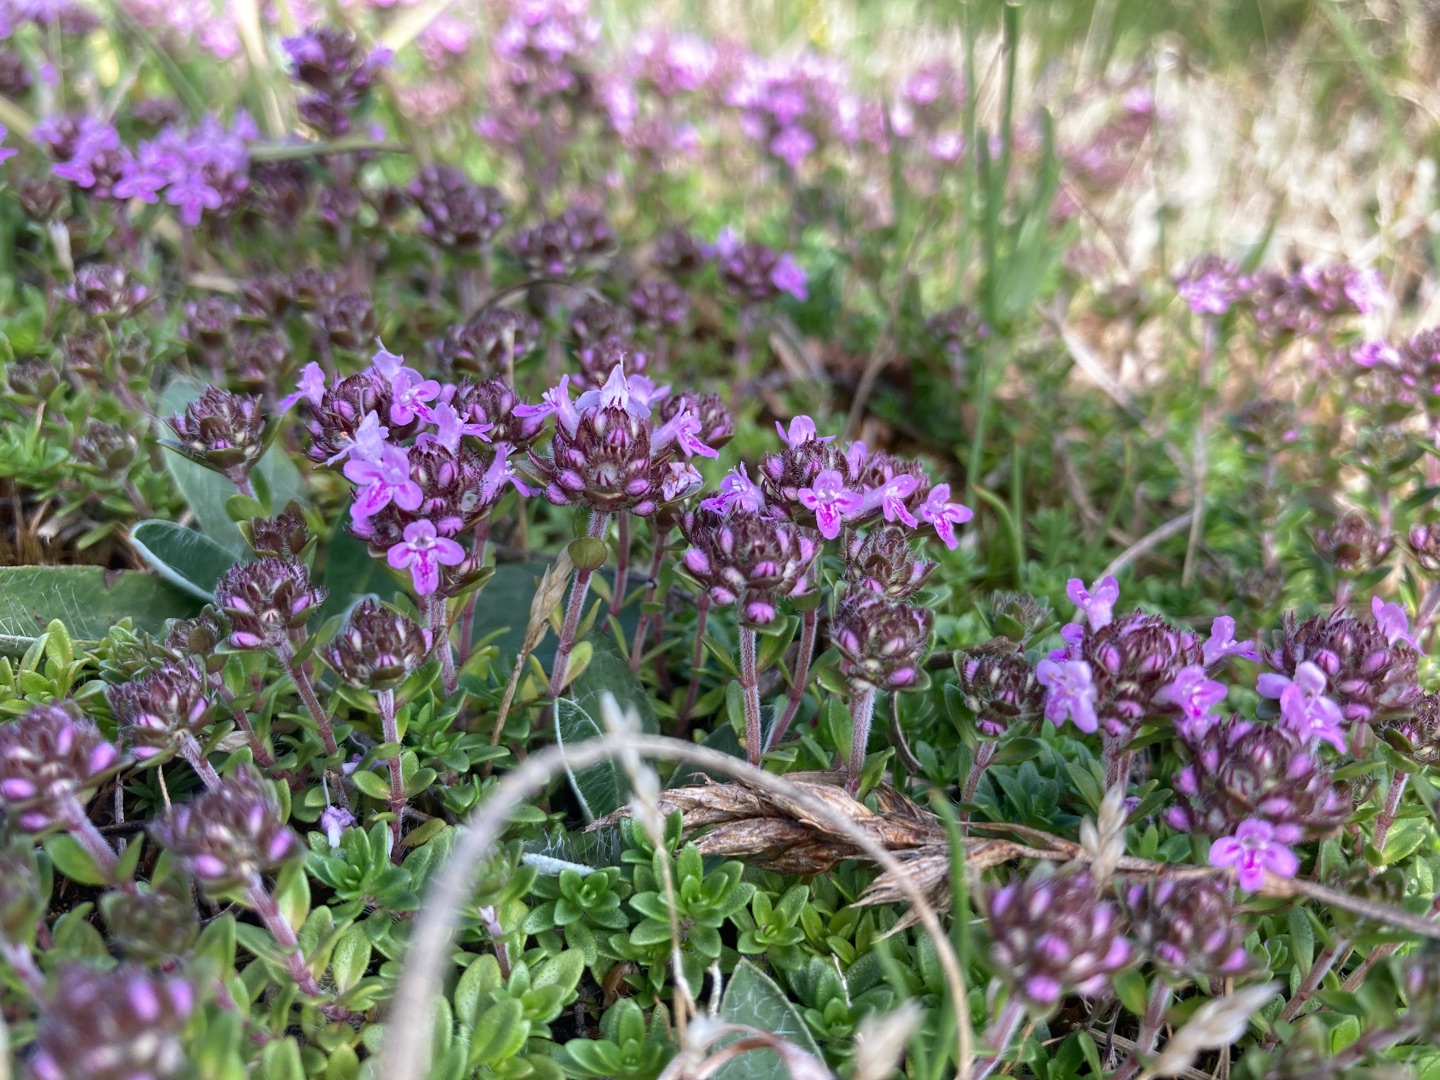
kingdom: Plantae
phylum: Tracheophyta
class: Magnoliopsida
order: Lamiales
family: Lamiaceae
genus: Thymus
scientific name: Thymus serpyllum
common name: Smalbladet timian
